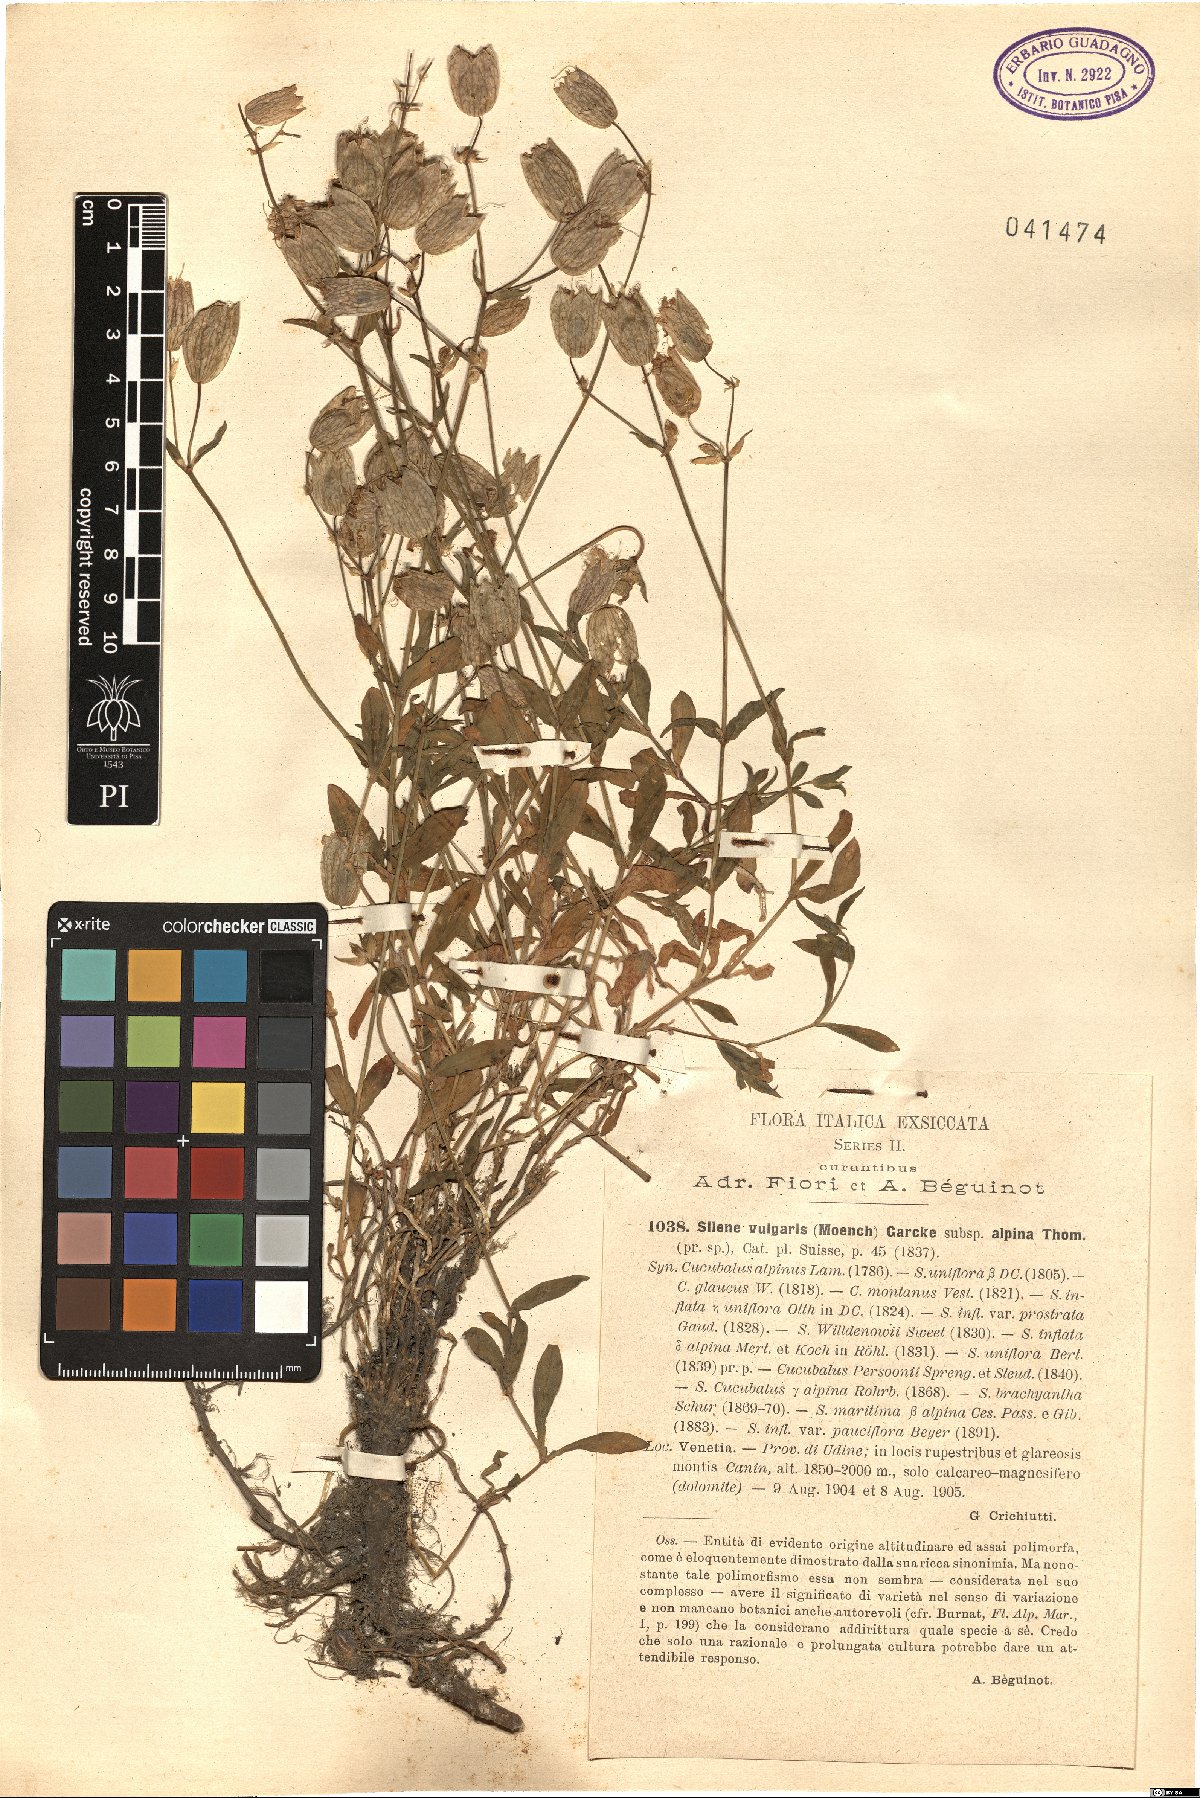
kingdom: Plantae
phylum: Tracheophyta
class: Magnoliopsida
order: Caryophyllales
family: Caryophyllaceae
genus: Silene
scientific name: Silene vulgaris
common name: Bladder campion
